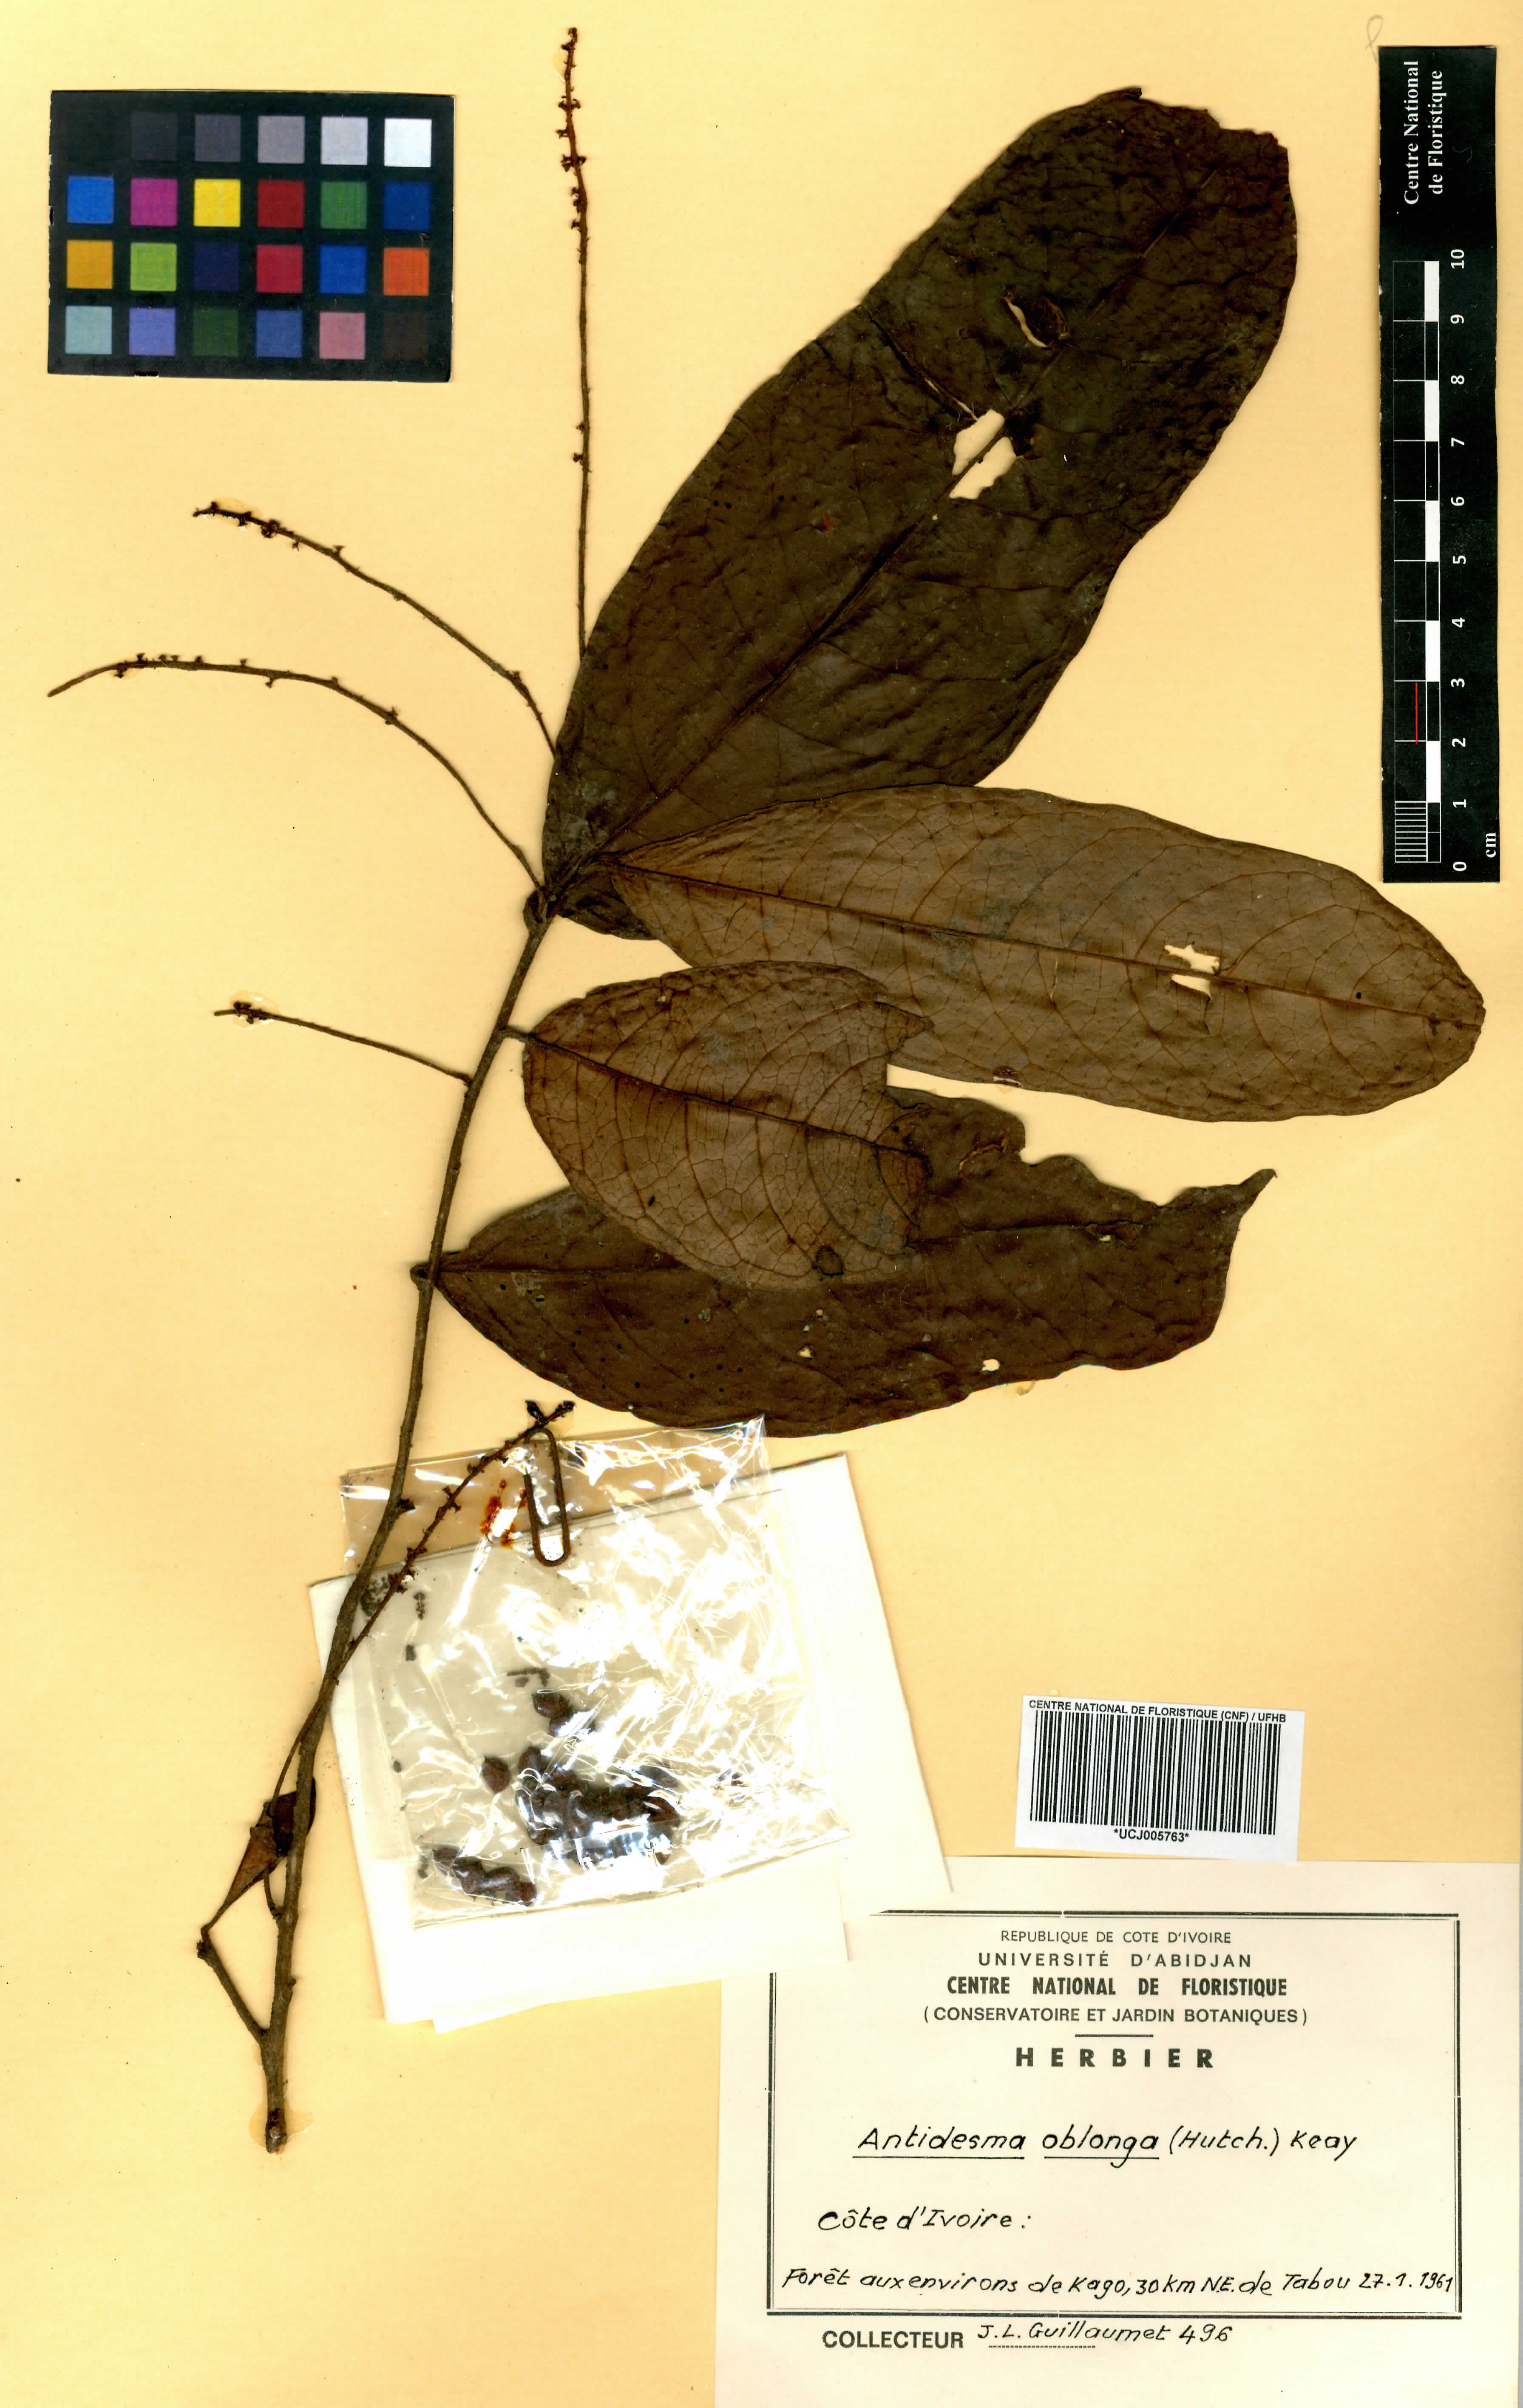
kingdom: Plantae
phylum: Tracheophyta
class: Magnoliopsida
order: Malpighiales
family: Phyllanthaceae
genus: Antidesma
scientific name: Antidesma oblongum
